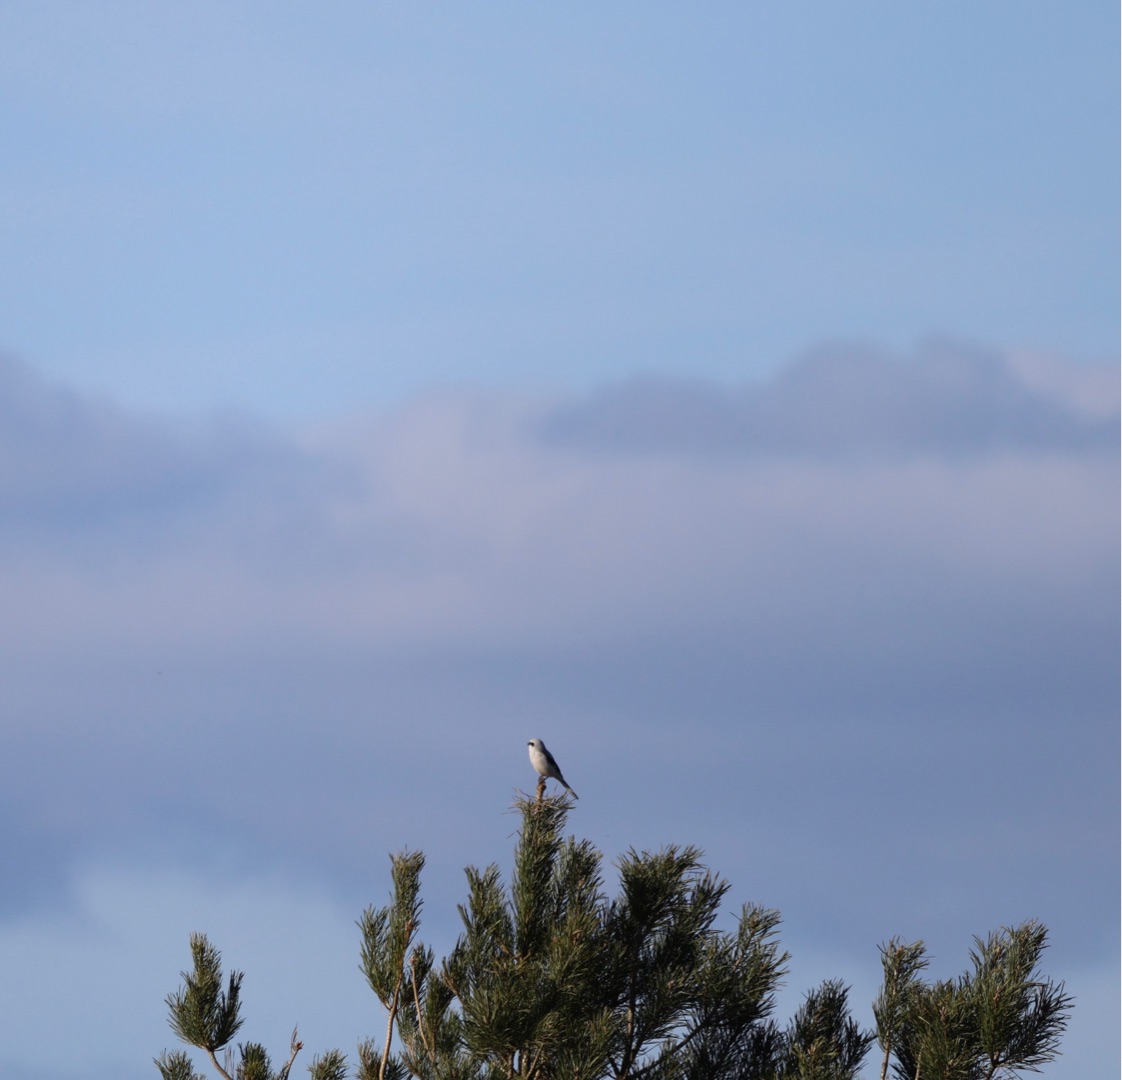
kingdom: Animalia
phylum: Chordata
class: Aves
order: Passeriformes
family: Laniidae
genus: Lanius
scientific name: Lanius excubitor
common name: Stor tornskade
